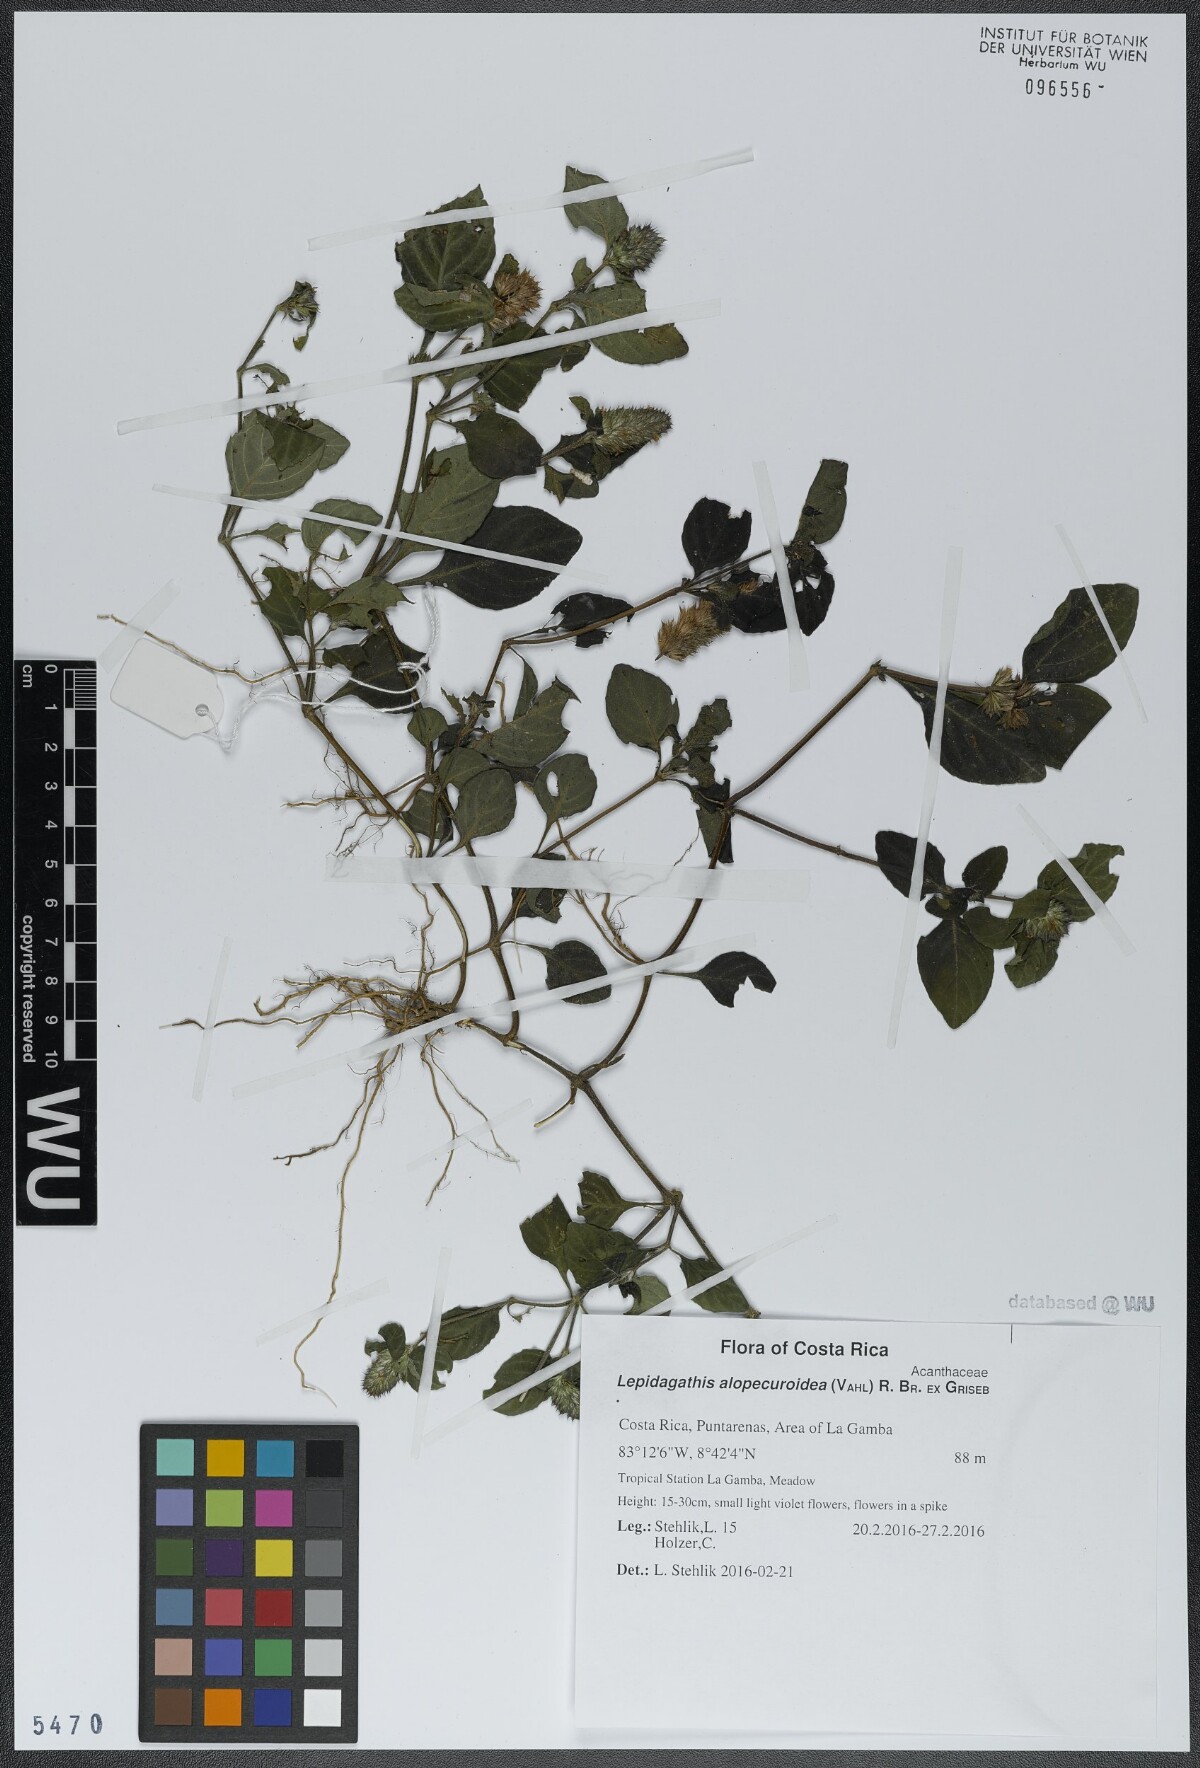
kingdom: Plantae
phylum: Tracheophyta
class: Magnoliopsida
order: Lamiales
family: Acanthaceae
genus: Lepidagathis
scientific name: Lepidagathis alopecuroidea
